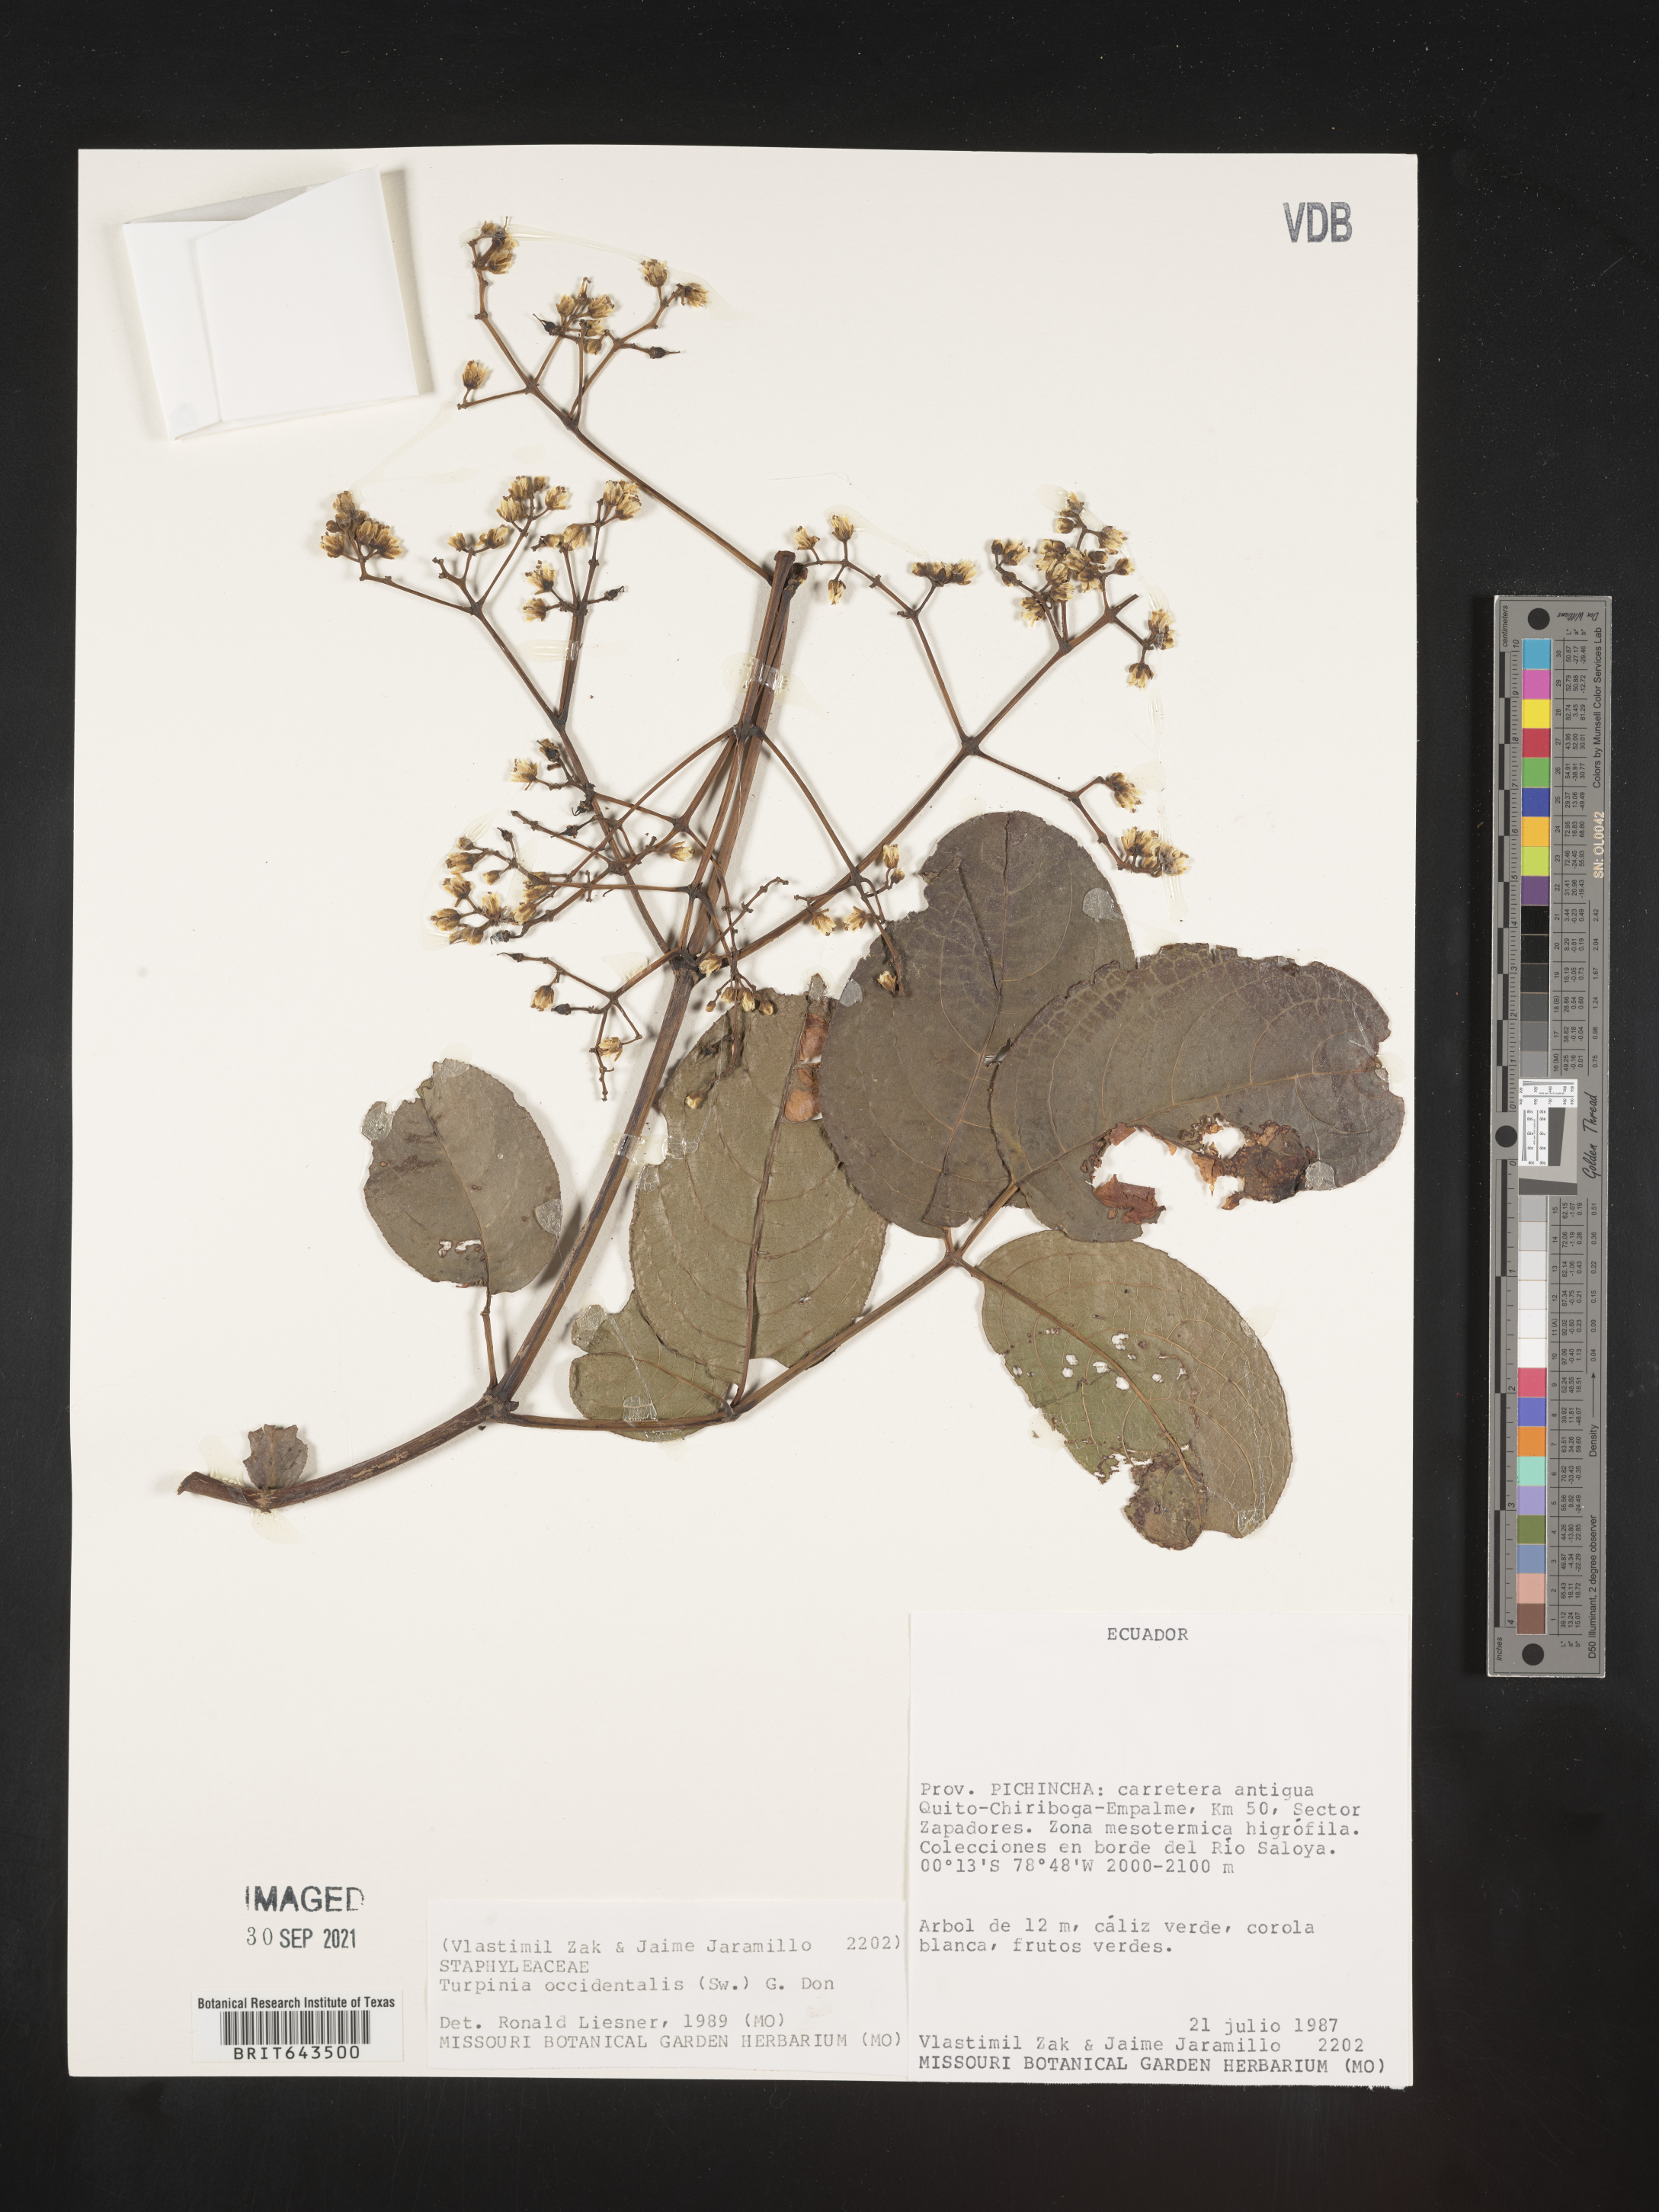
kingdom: Plantae
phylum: Tracheophyta
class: Magnoliopsida
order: Crossosomatales
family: Staphyleaceae
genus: Turpinia
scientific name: Turpinia
